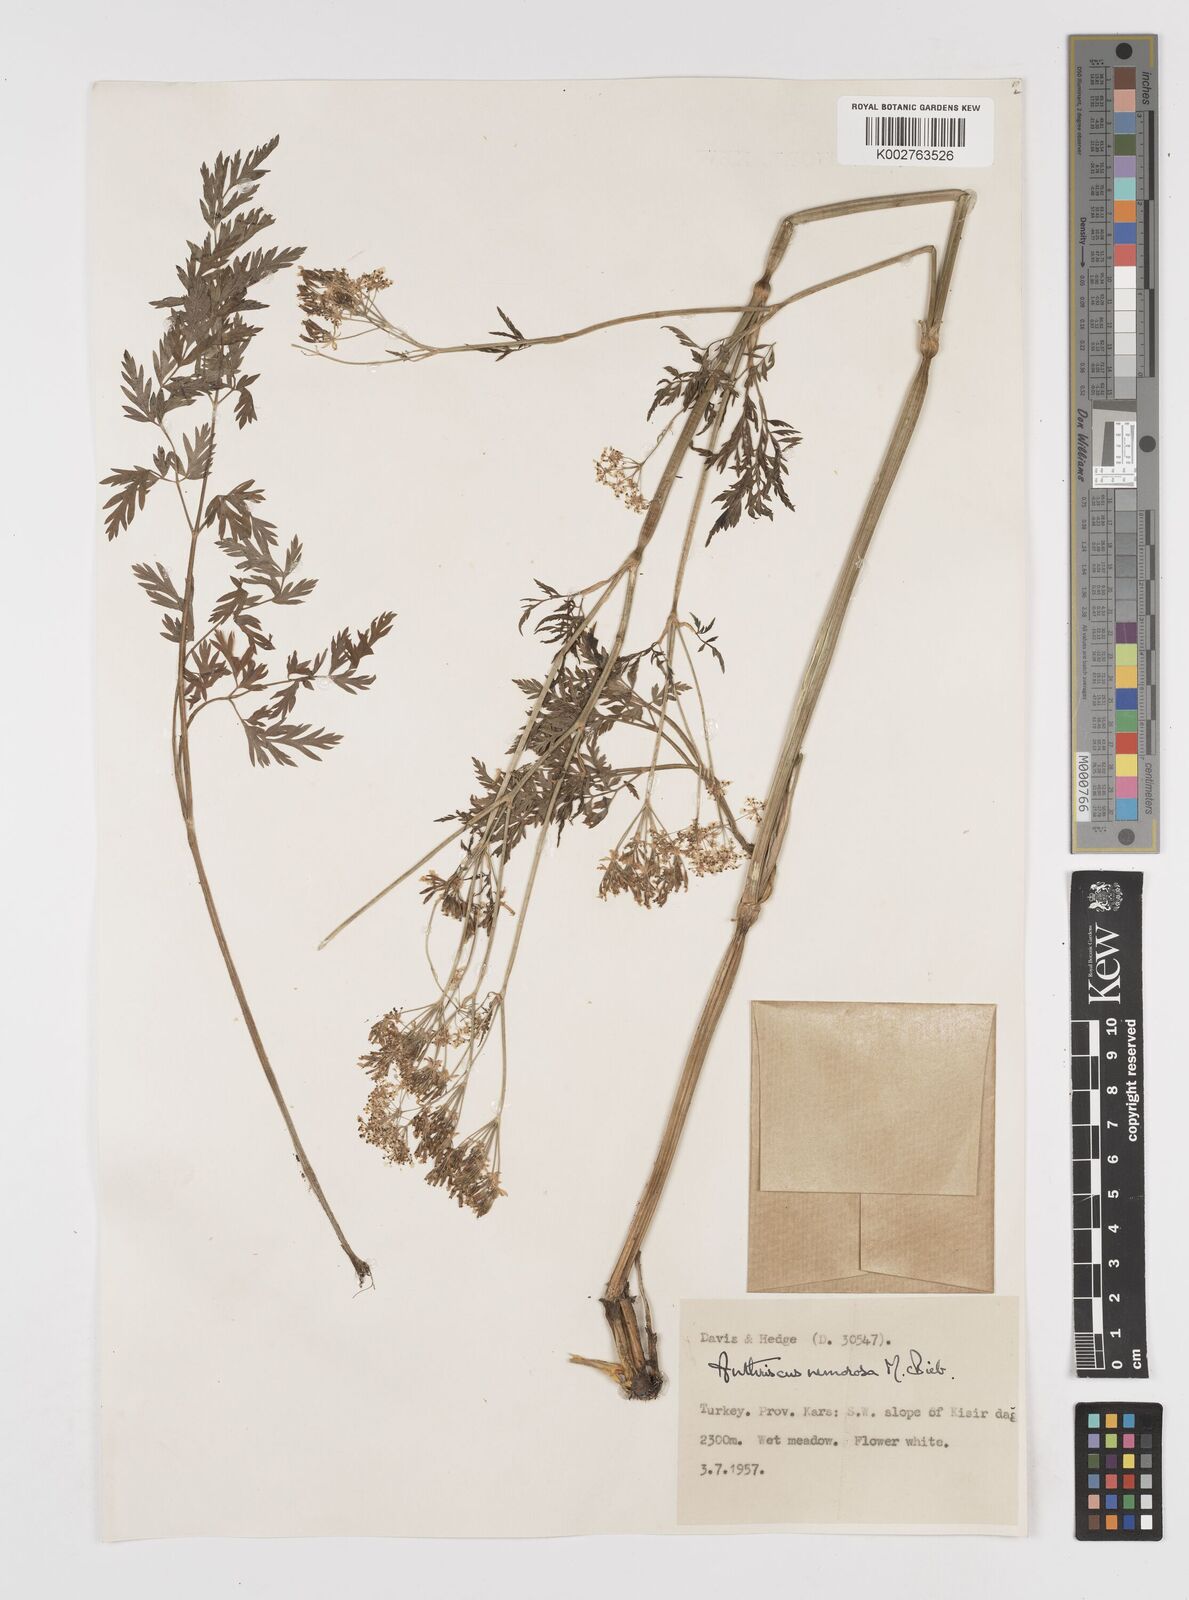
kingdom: Plantae
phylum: Tracheophyta
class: Magnoliopsida
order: Apiales
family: Apiaceae
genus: Anthriscus
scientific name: Anthriscus sylvestris
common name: Cow parsley
